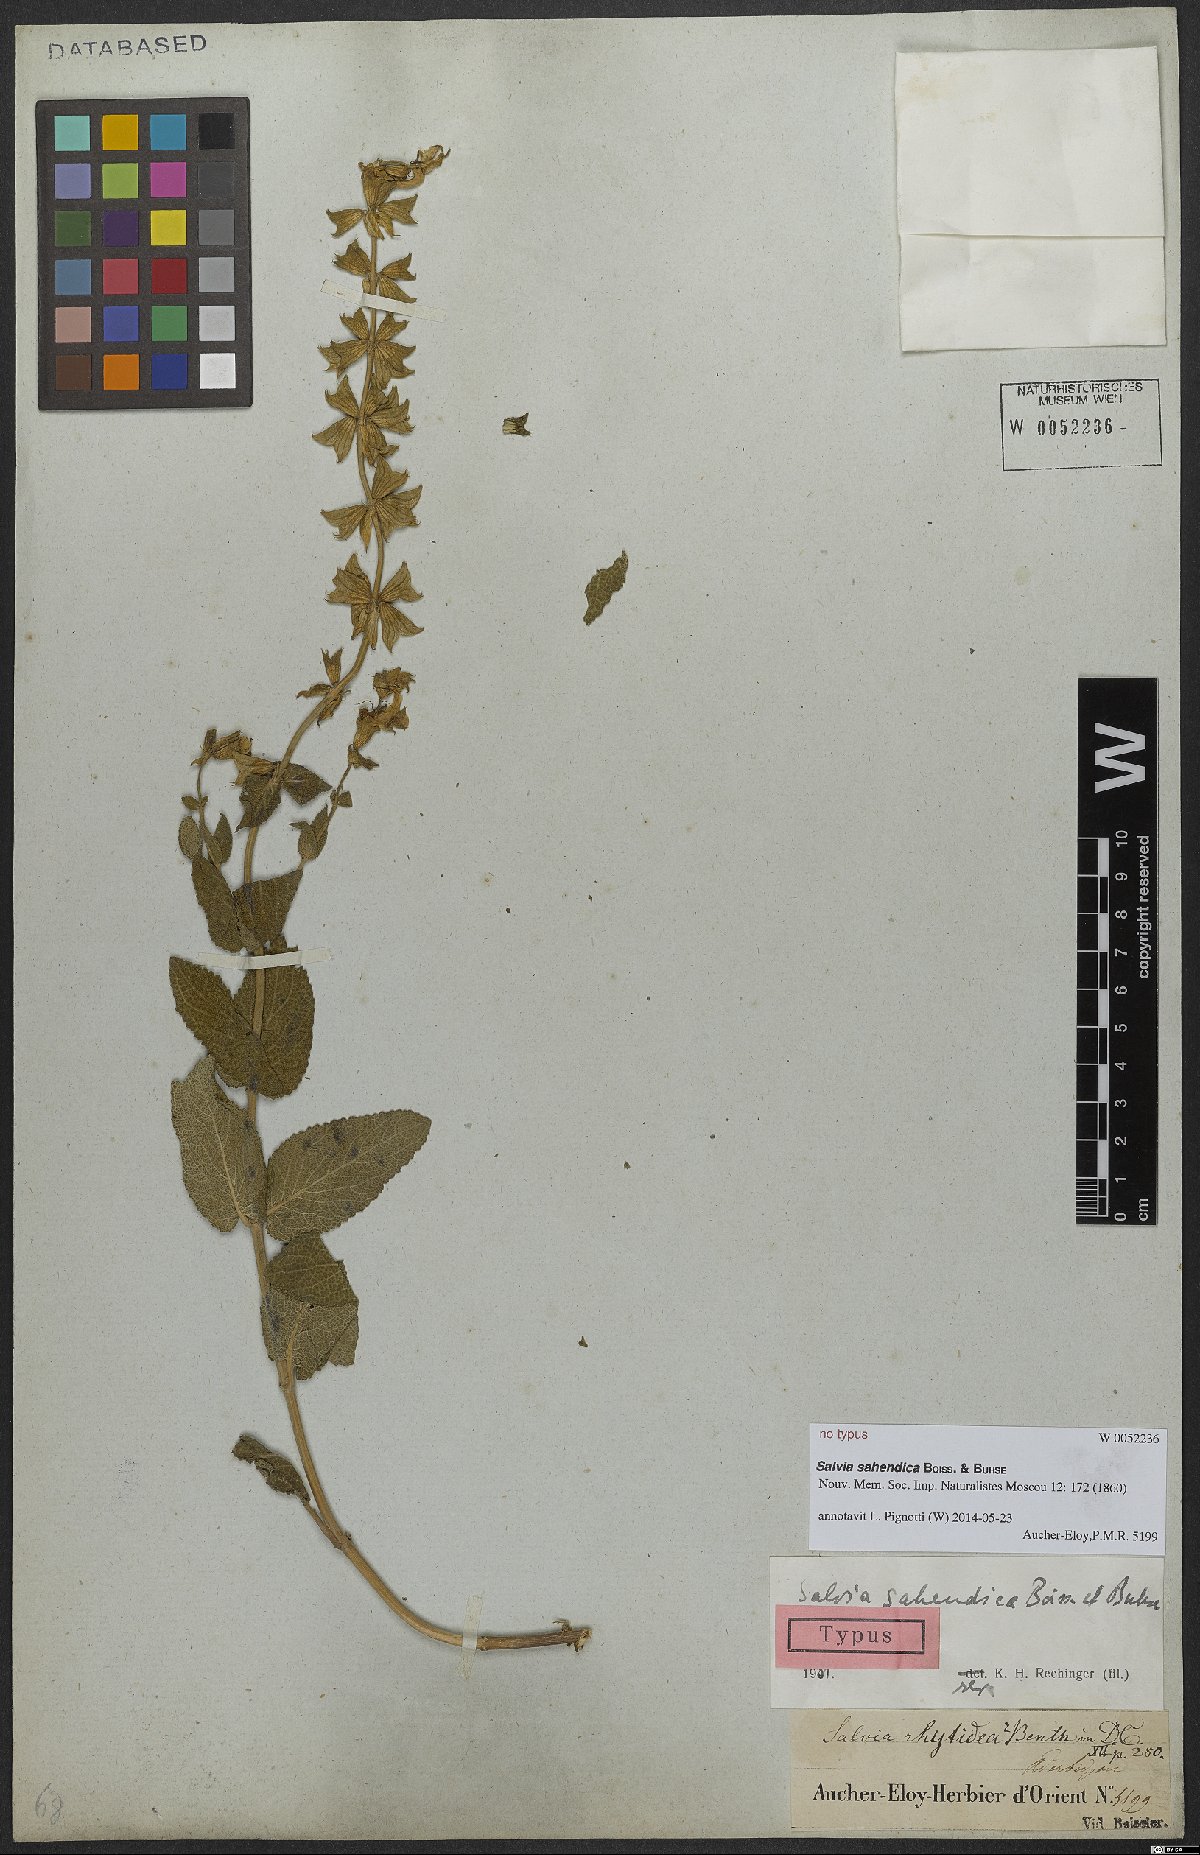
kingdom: Plantae
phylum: Tracheophyta
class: Magnoliopsida
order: Lamiales
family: Lamiaceae
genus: Salvia
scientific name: Salvia sahendica
